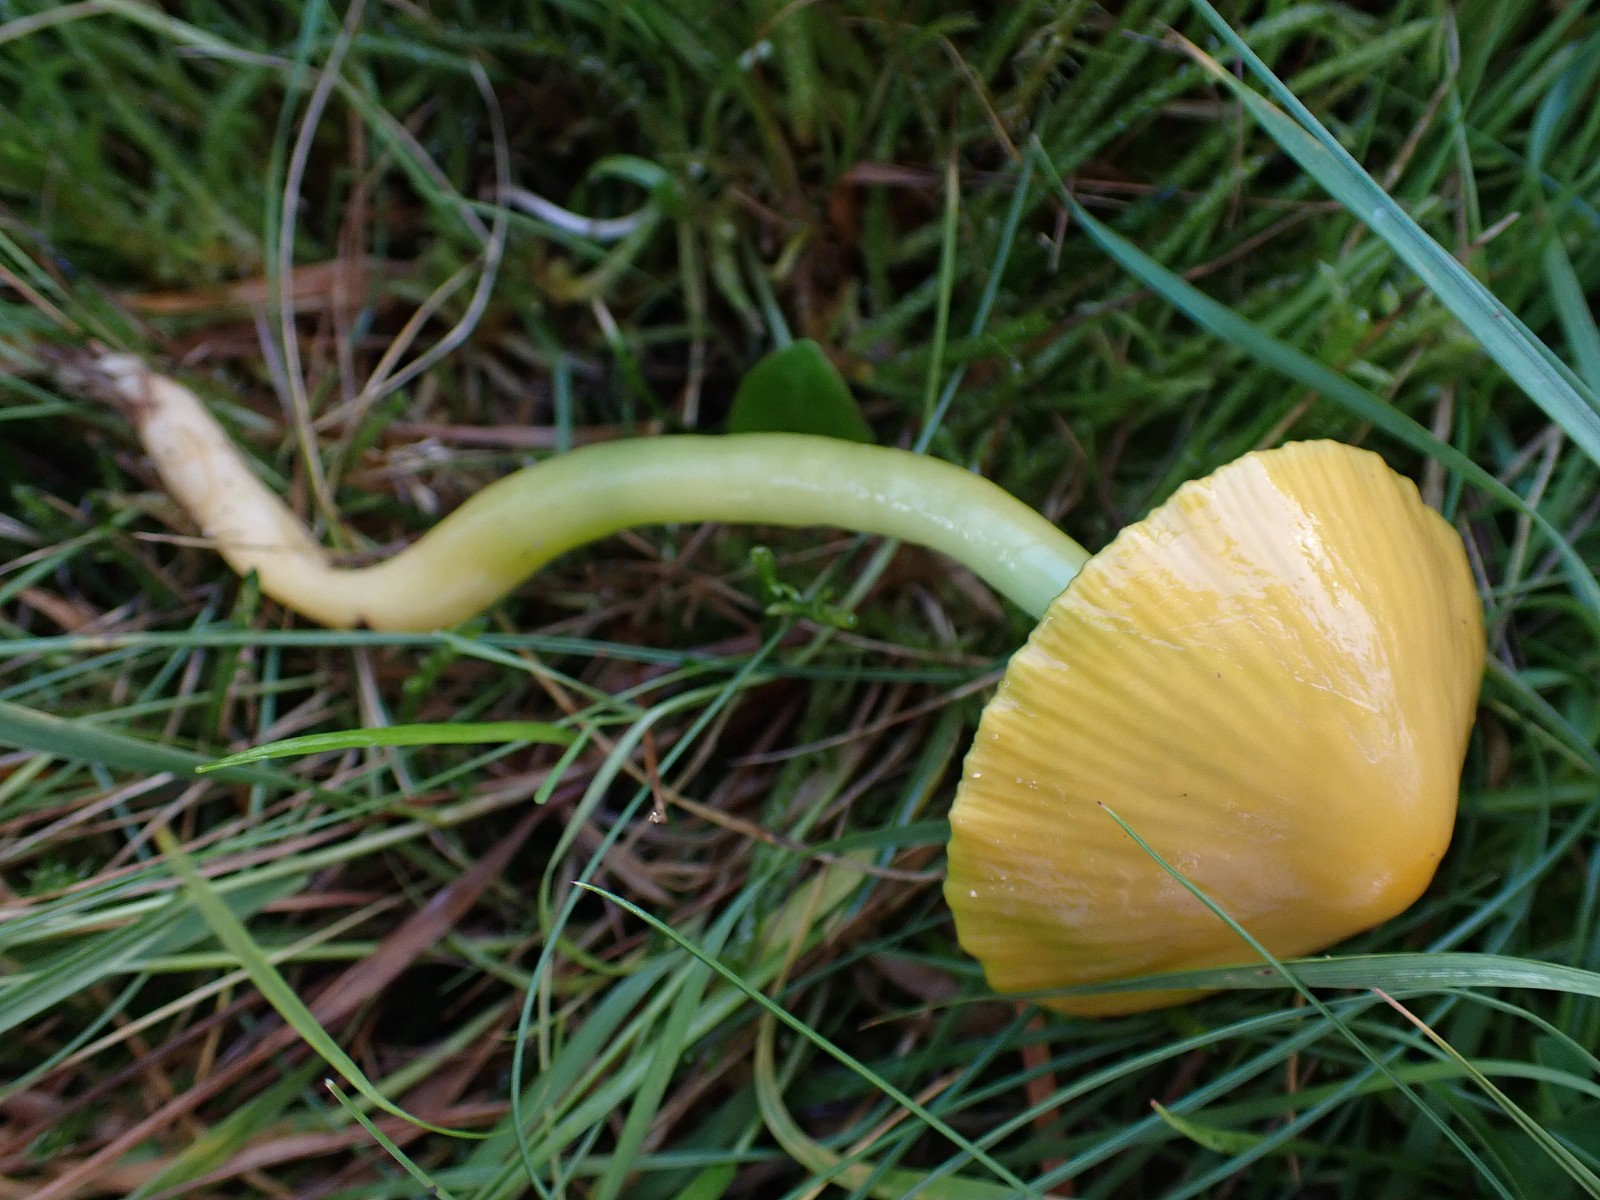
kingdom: Fungi
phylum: Basidiomycota
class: Agaricomycetes
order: Agaricales
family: Hygrophoraceae
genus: Gliophorus
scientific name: Gliophorus psittacinus
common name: papegøje-vokshat
